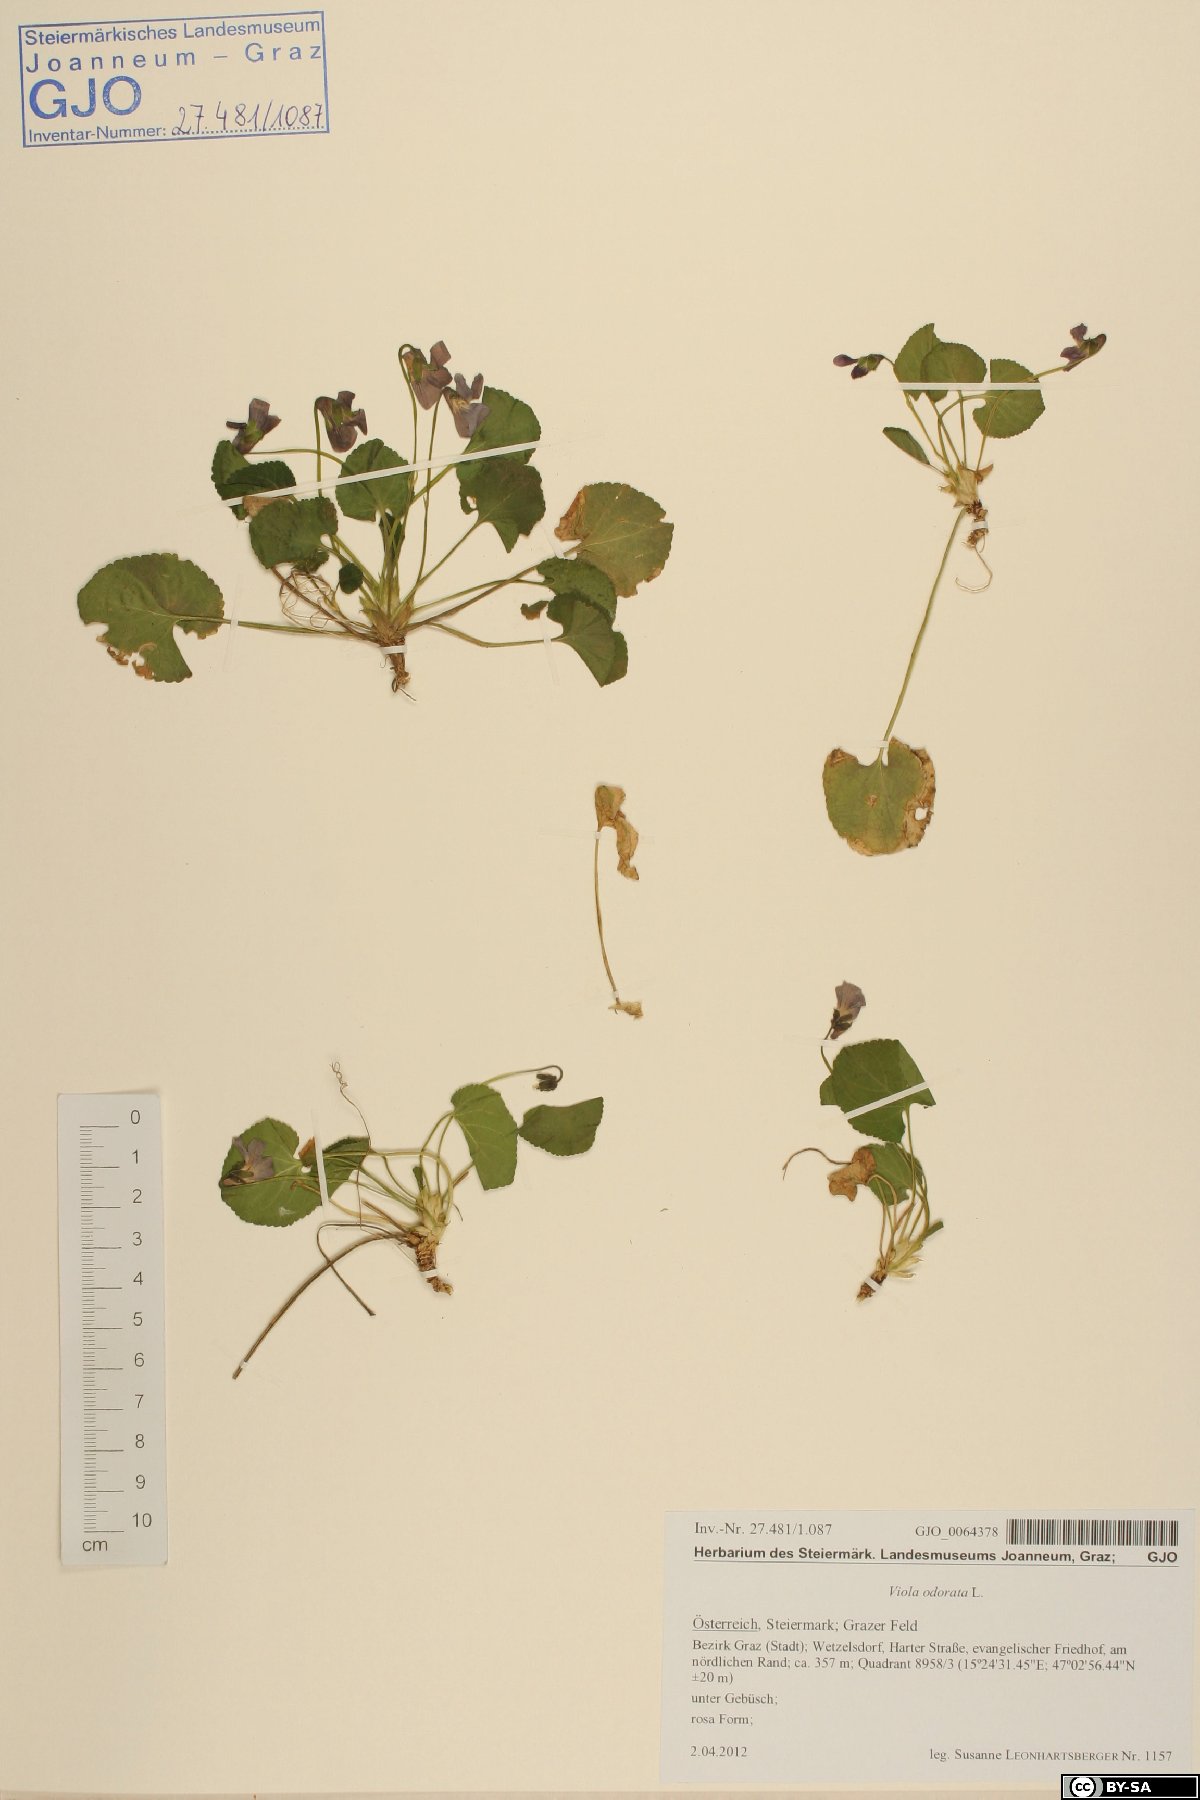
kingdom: Plantae
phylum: Tracheophyta
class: Magnoliopsida
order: Malpighiales
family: Violaceae
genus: Viola
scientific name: Viola odorata
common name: Sweet violet
